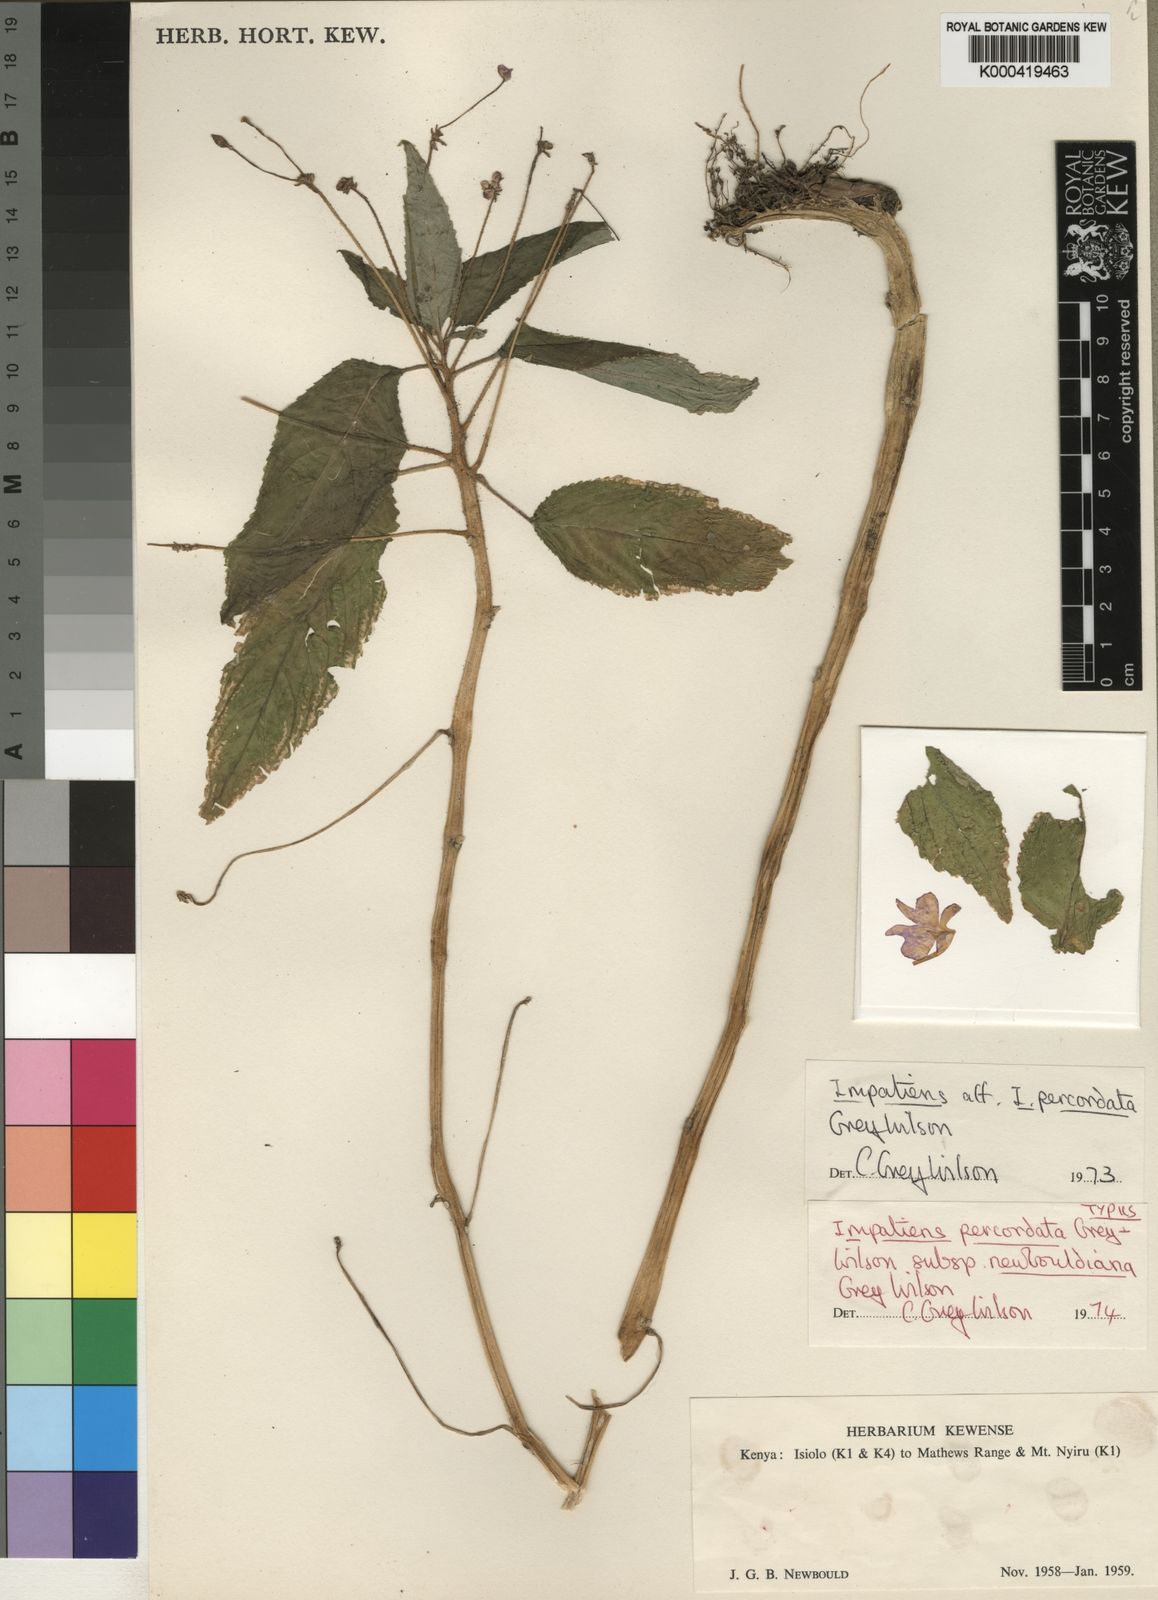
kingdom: Plantae
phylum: Tracheophyta
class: Magnoliopsida
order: Ericales
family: Balsaminaceae
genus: Impatiens
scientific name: Impatiens percordata
